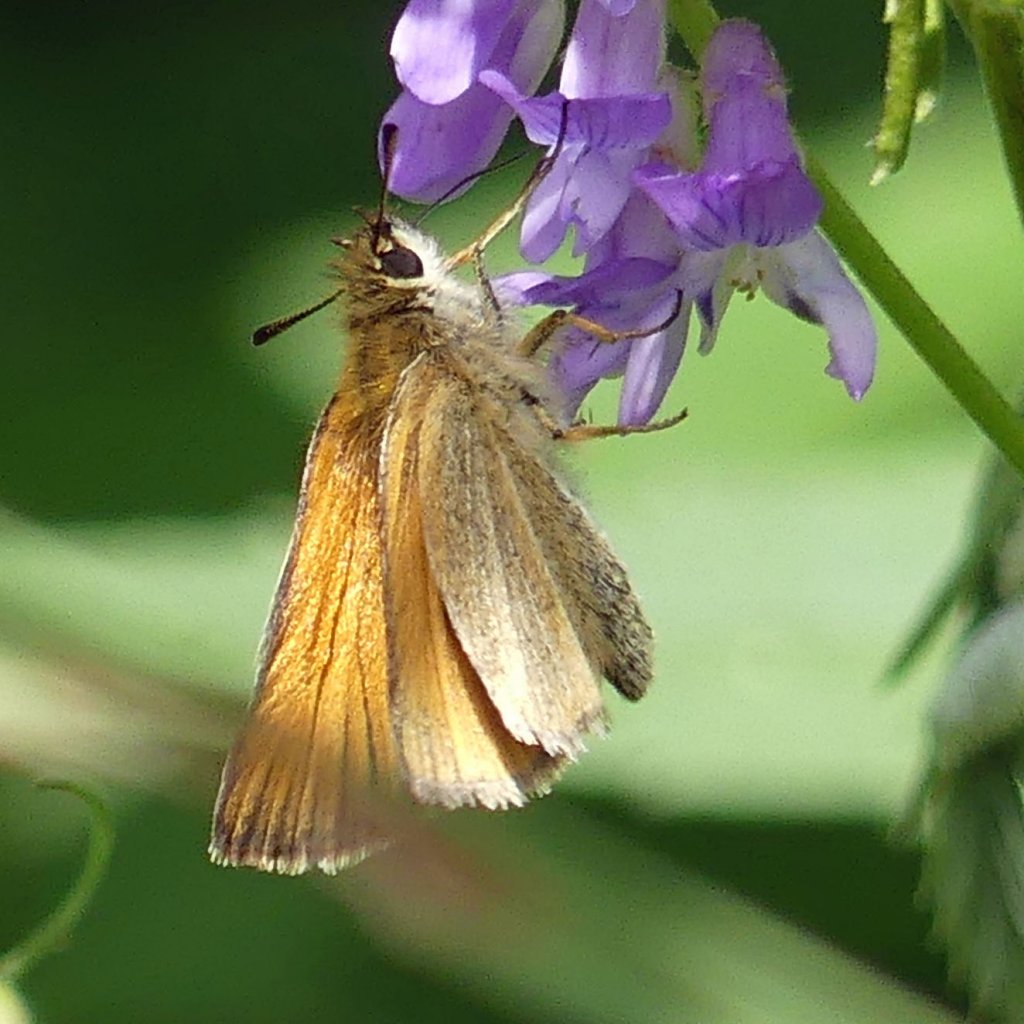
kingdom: Animalia
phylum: Arthropoda
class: Insecta
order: Lepidoptera
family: Hesperiidae
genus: Thymelicus
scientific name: Thymelicus lineola
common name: European Skipper
